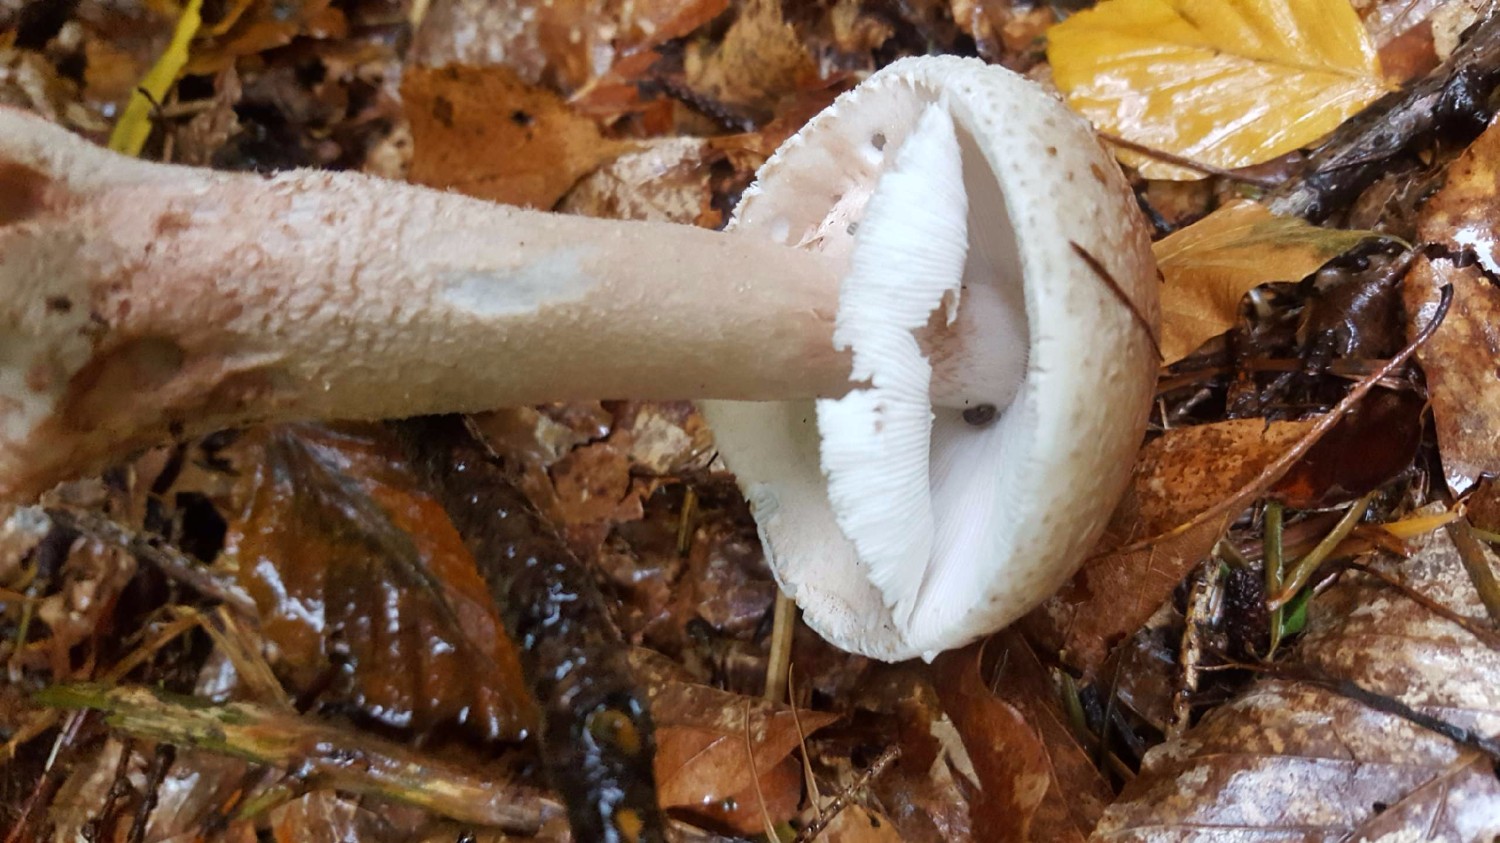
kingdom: Fungi
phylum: Basidiomycota
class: Agaricomycetes
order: Agaricales
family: Amanitaceae
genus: Amanita
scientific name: Amanita rubescens
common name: rødmende fluesvamp
